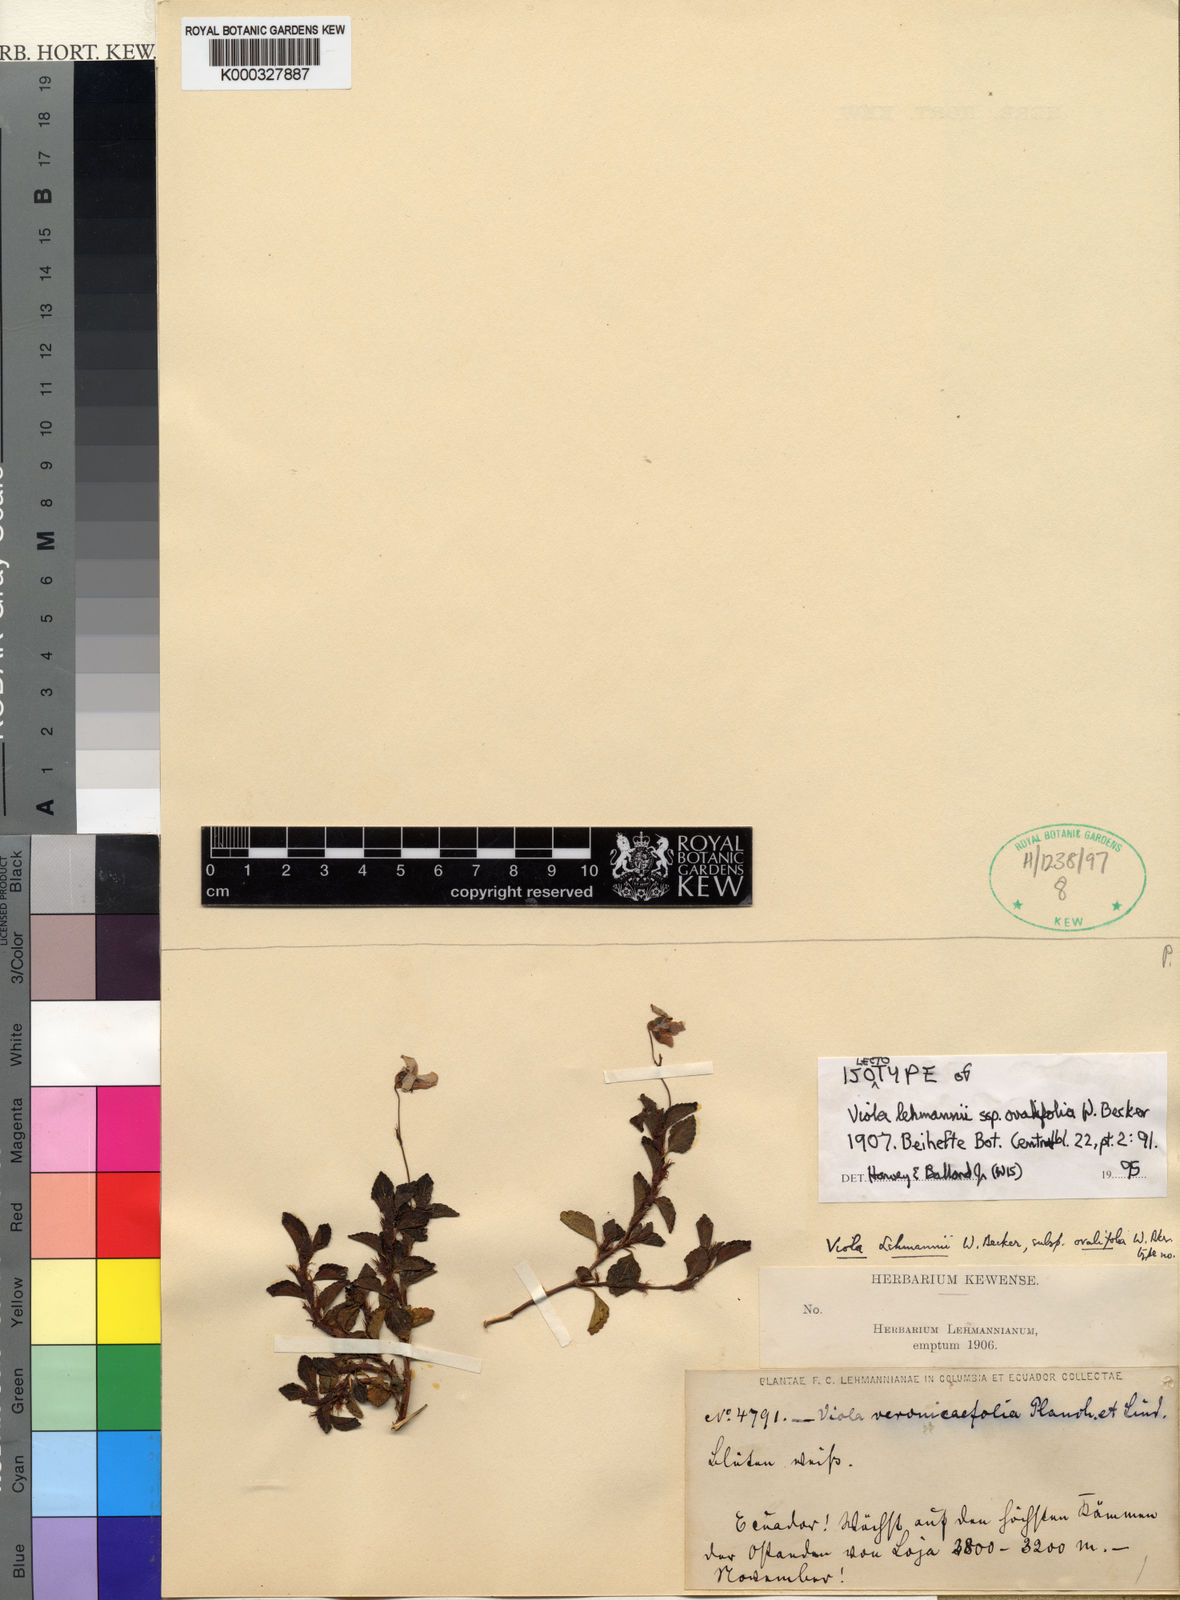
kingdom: Plantae
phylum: Tracheophyta
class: Magnoliopsida
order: Malpighiales
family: Violaceae
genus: Viola
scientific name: Viola lehmannii
